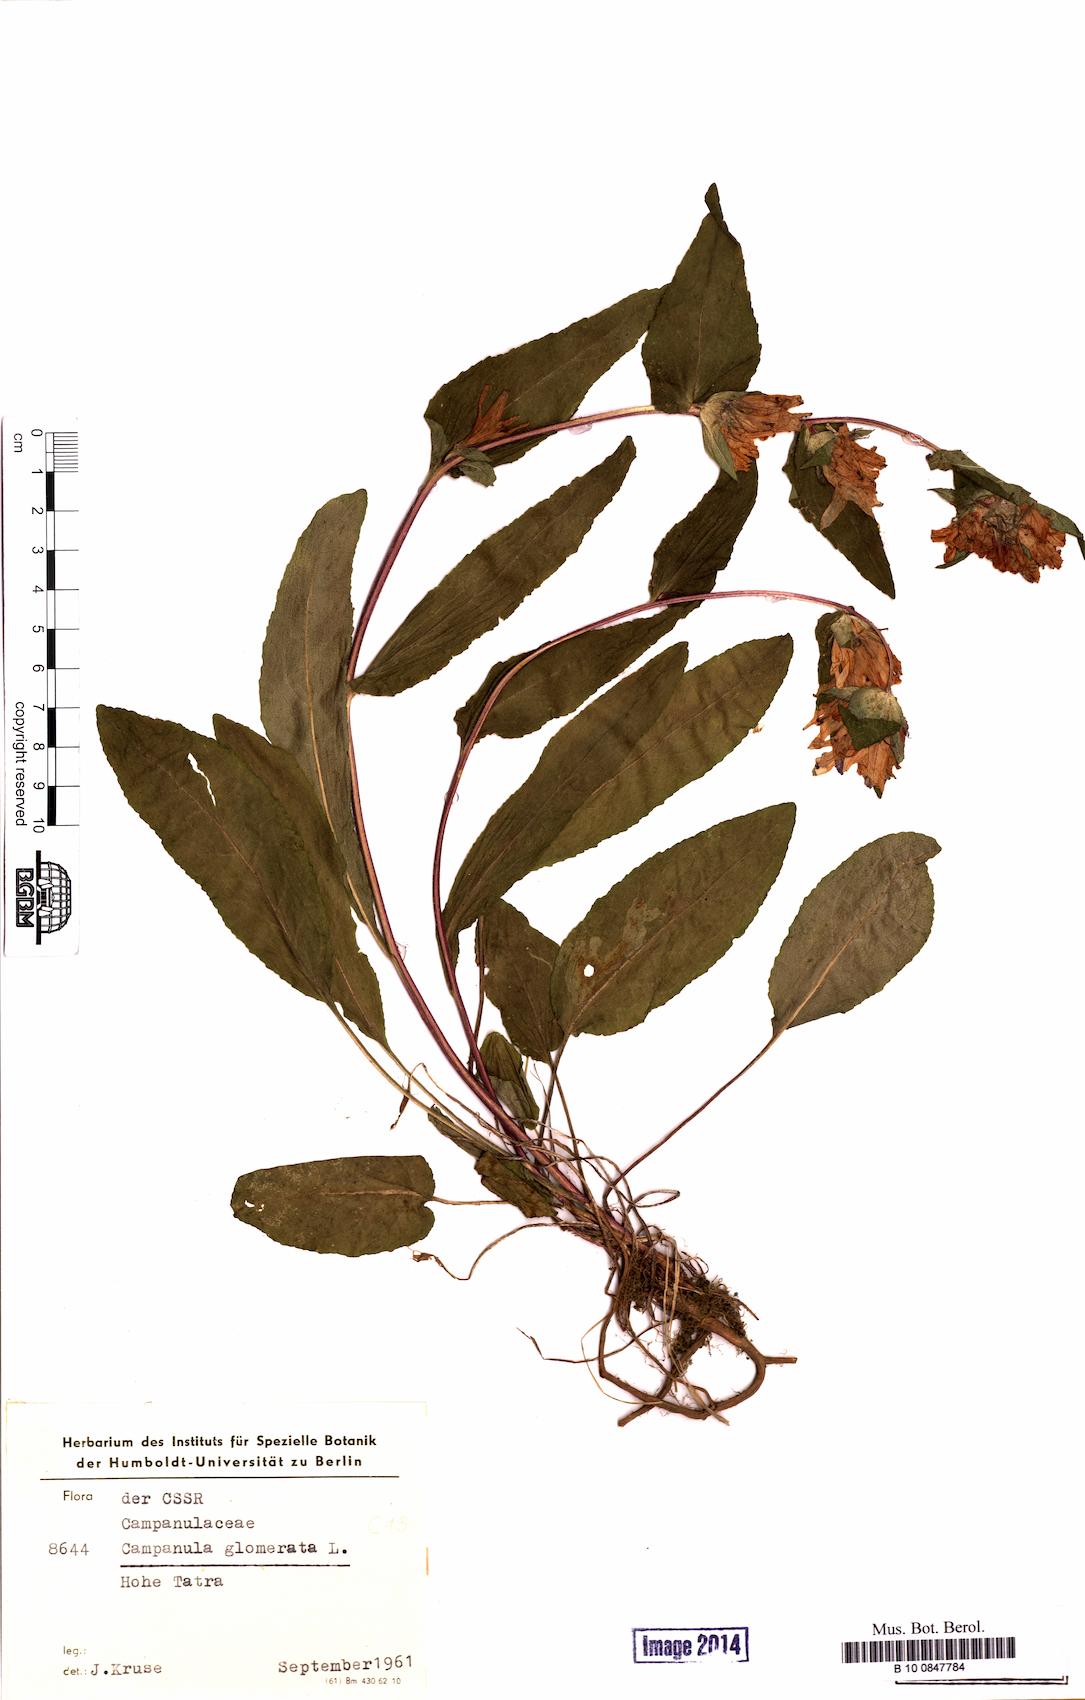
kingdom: Plantae
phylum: Tracheophyta
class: Magnoliopsida
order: Asterales
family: Campanulaceae
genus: Campanula
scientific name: Campanula glomerata
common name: Clustered bellflower
